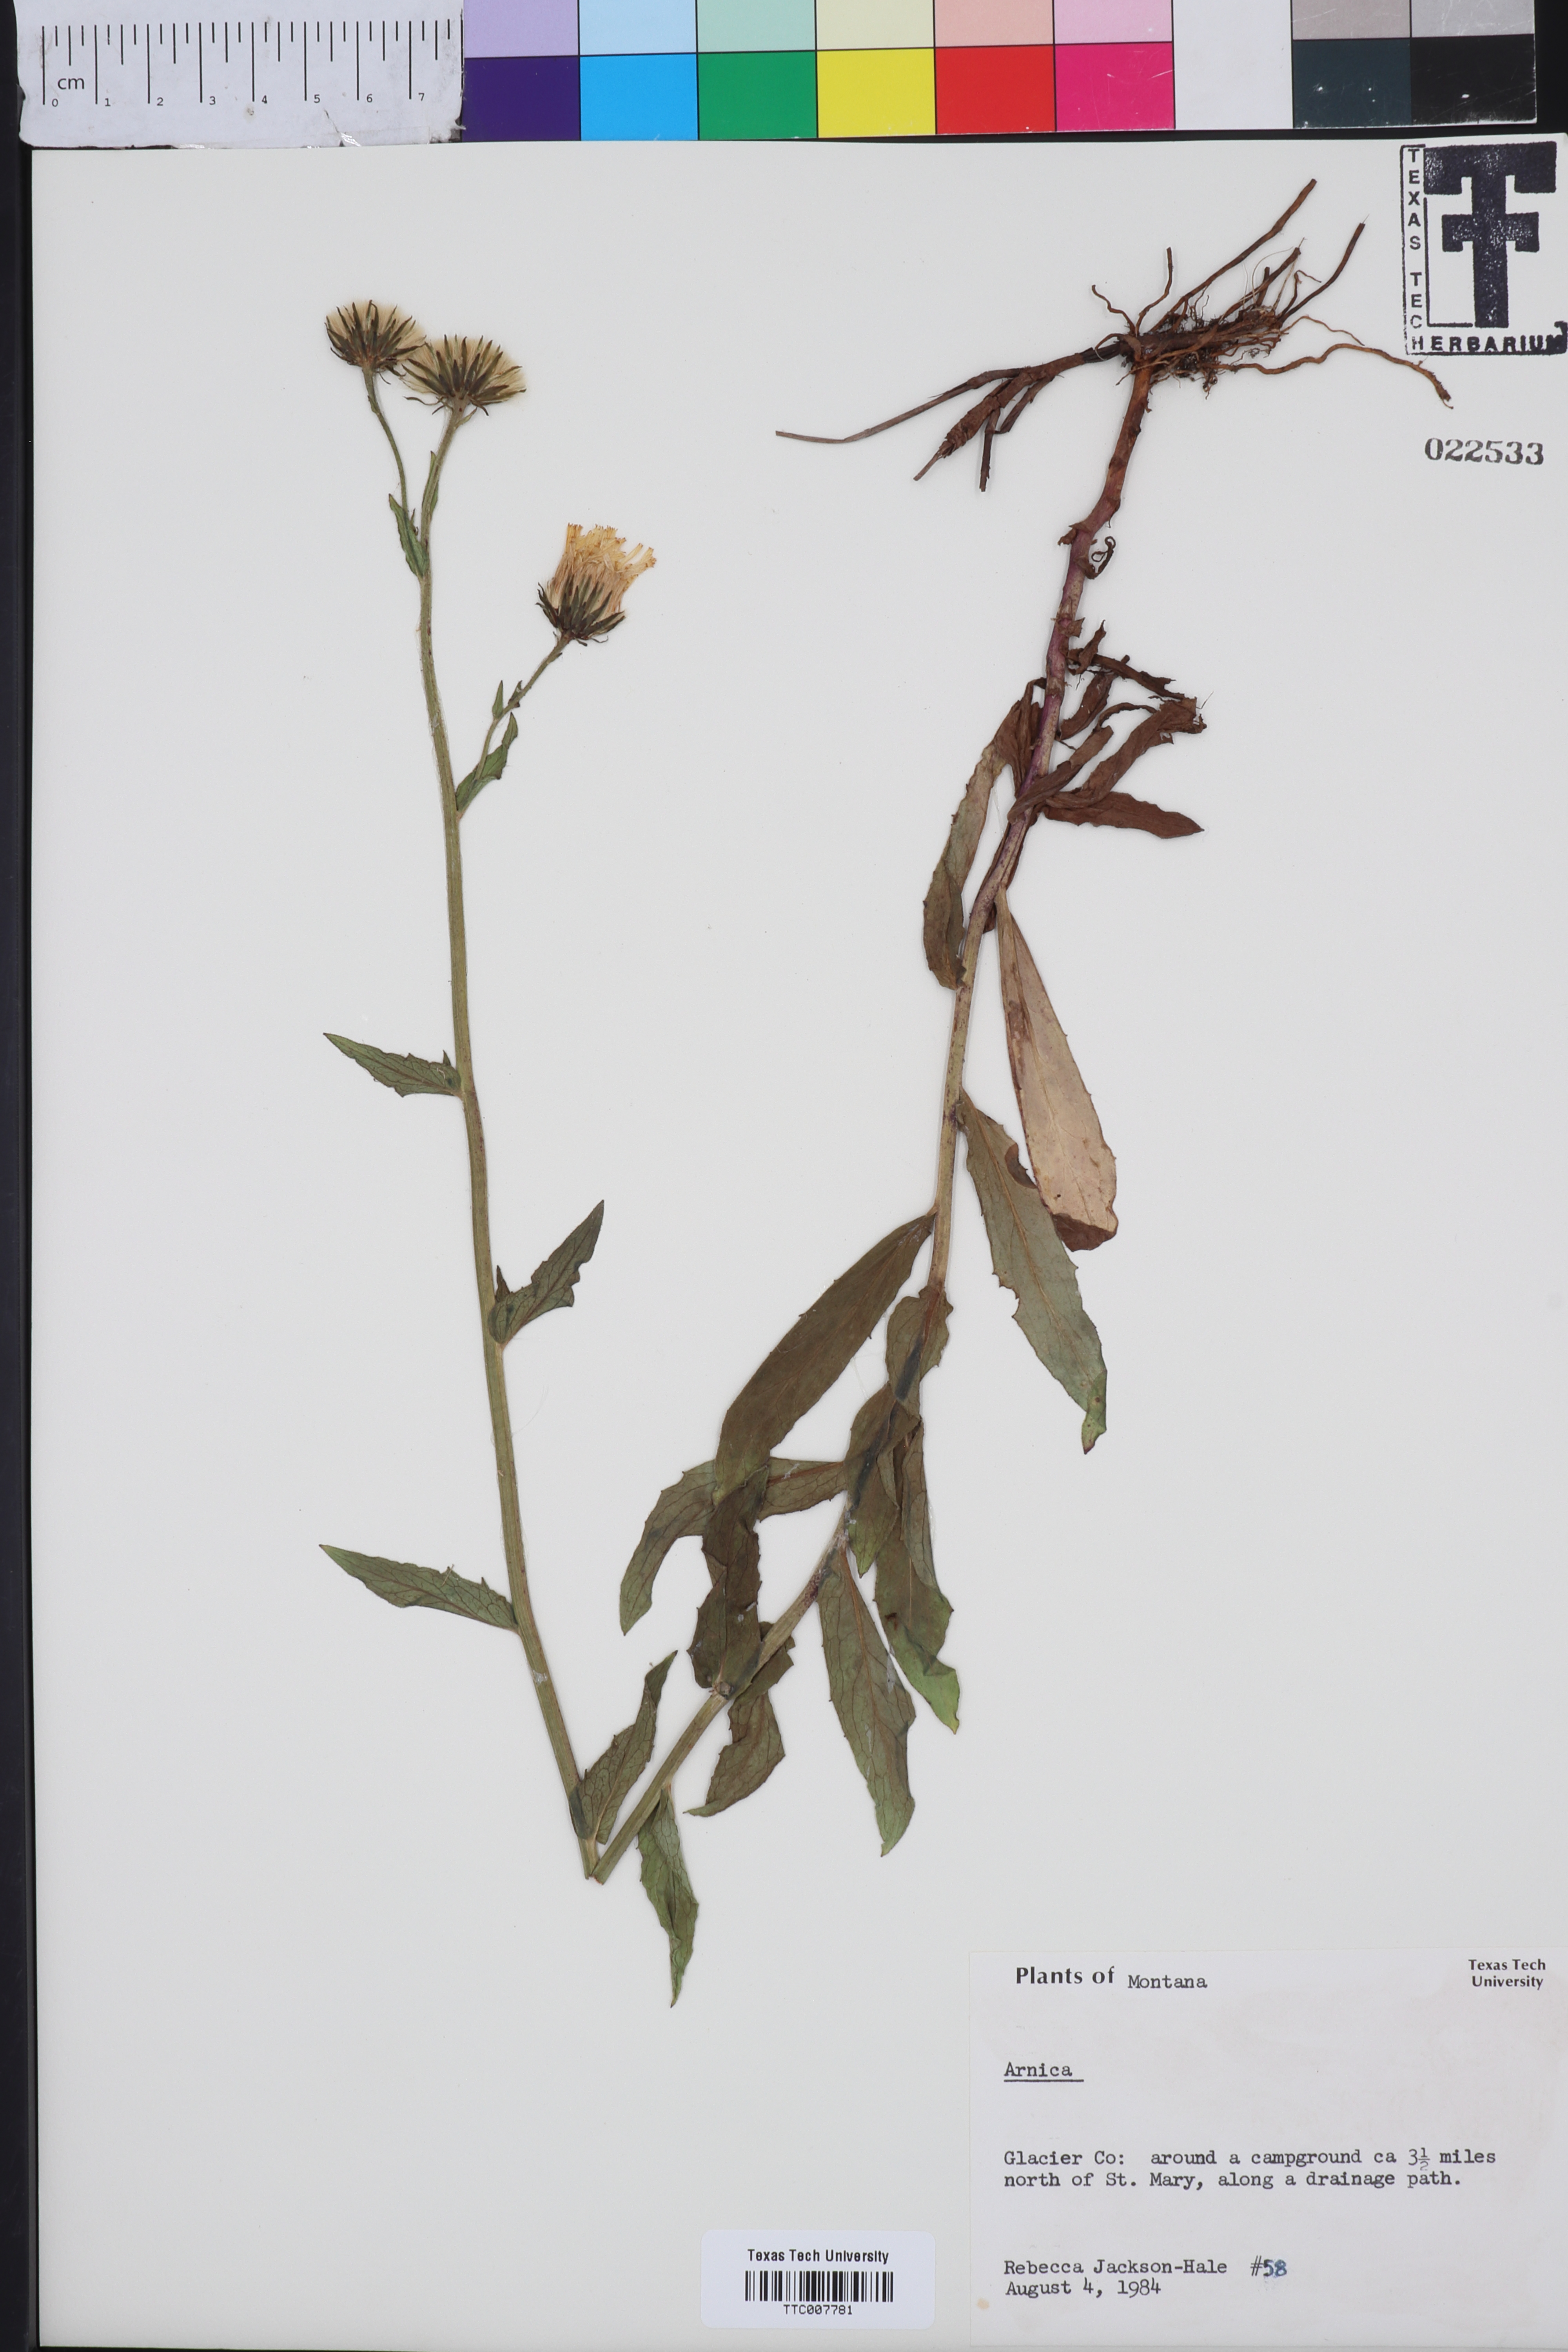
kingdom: Plantae
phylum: Tracheophyta
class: Magnoliopsida
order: Asterales
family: Asteraceae
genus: Arnica
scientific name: Arnica
